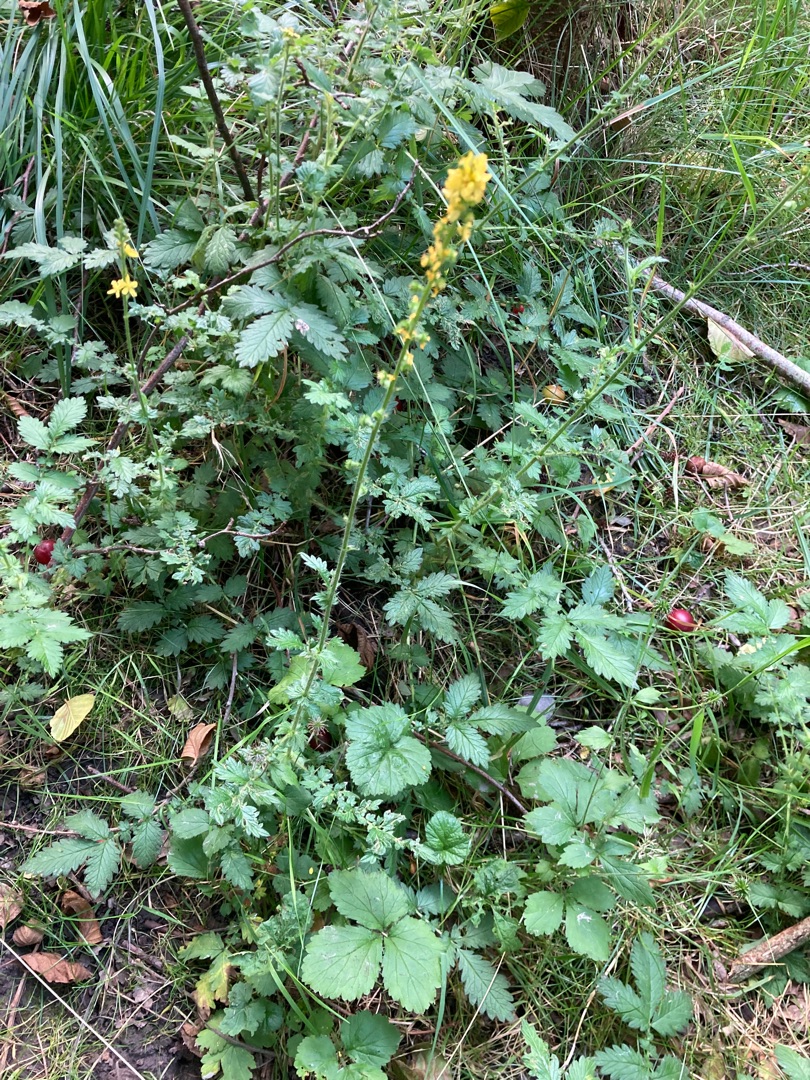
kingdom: Plantae
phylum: Tracheophyta
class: Magnoliopsida
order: Rosales
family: Rosaceae
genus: Agrimonia
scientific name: Agrimonia
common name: Agermåneslægten
